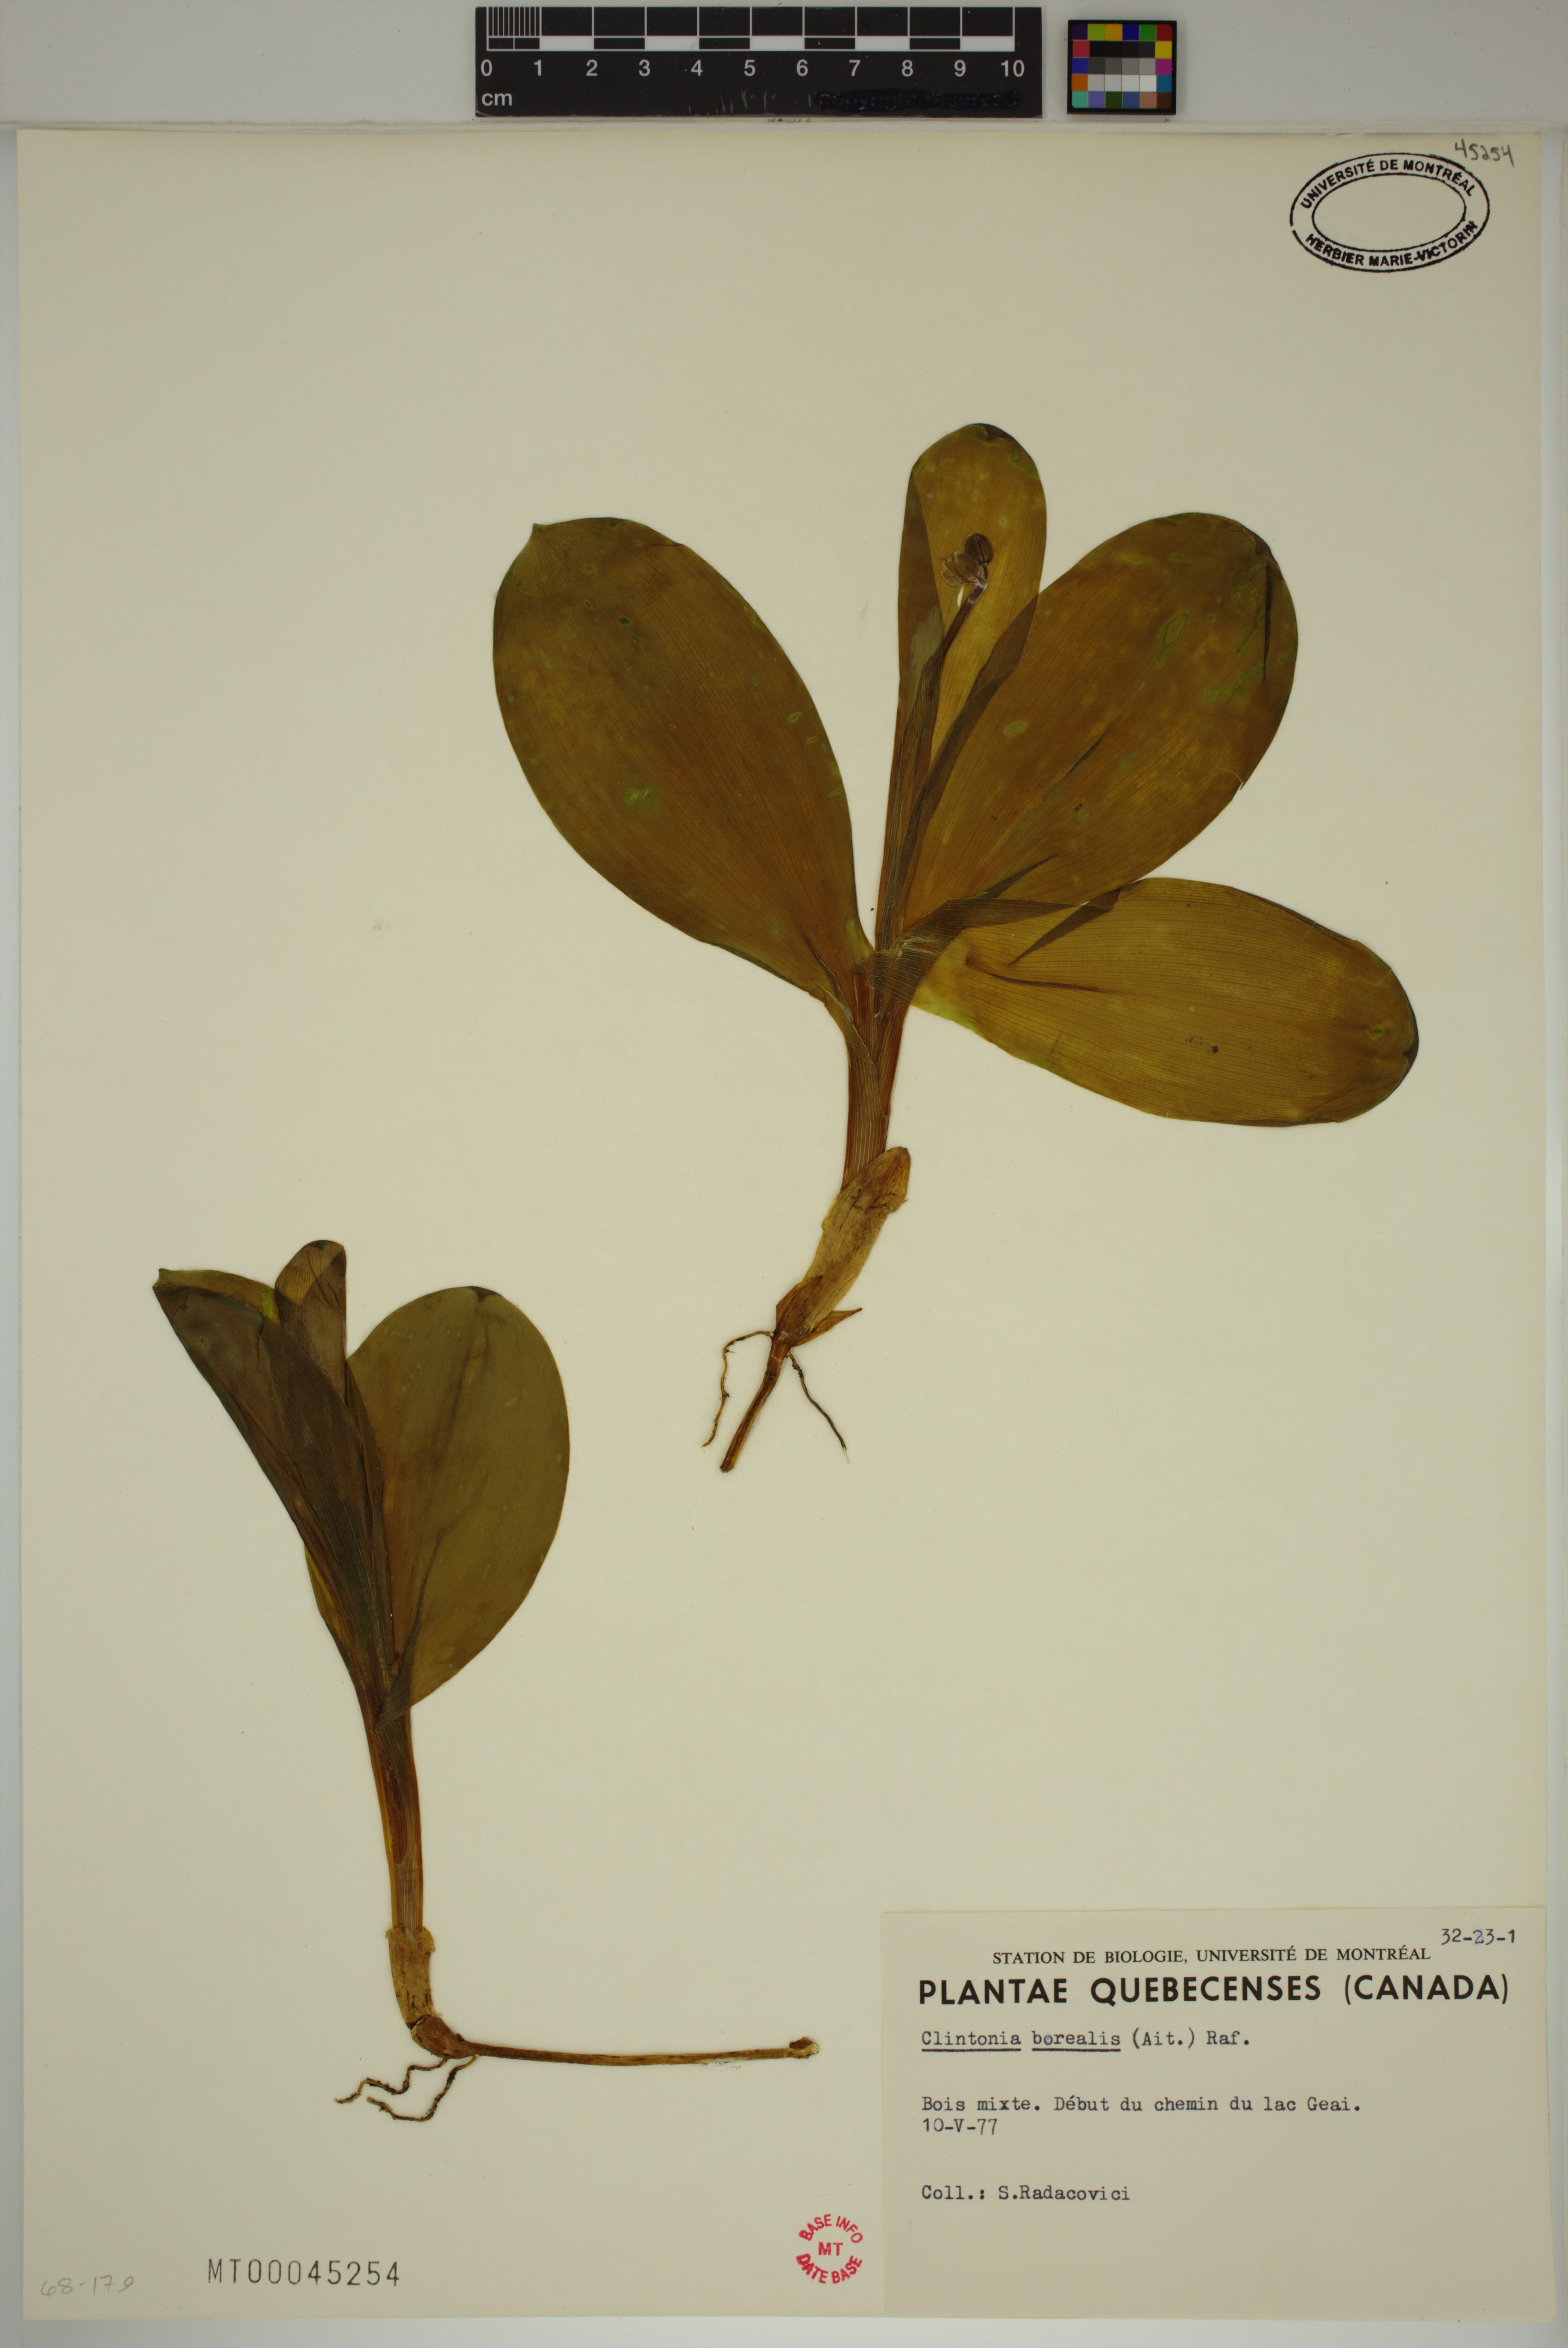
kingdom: Plantae
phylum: Tracheophyta
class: Liliopsida
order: Liliales
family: Liliaceae
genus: Clintonia
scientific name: Clintonia borealis
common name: Yellow clintonia
